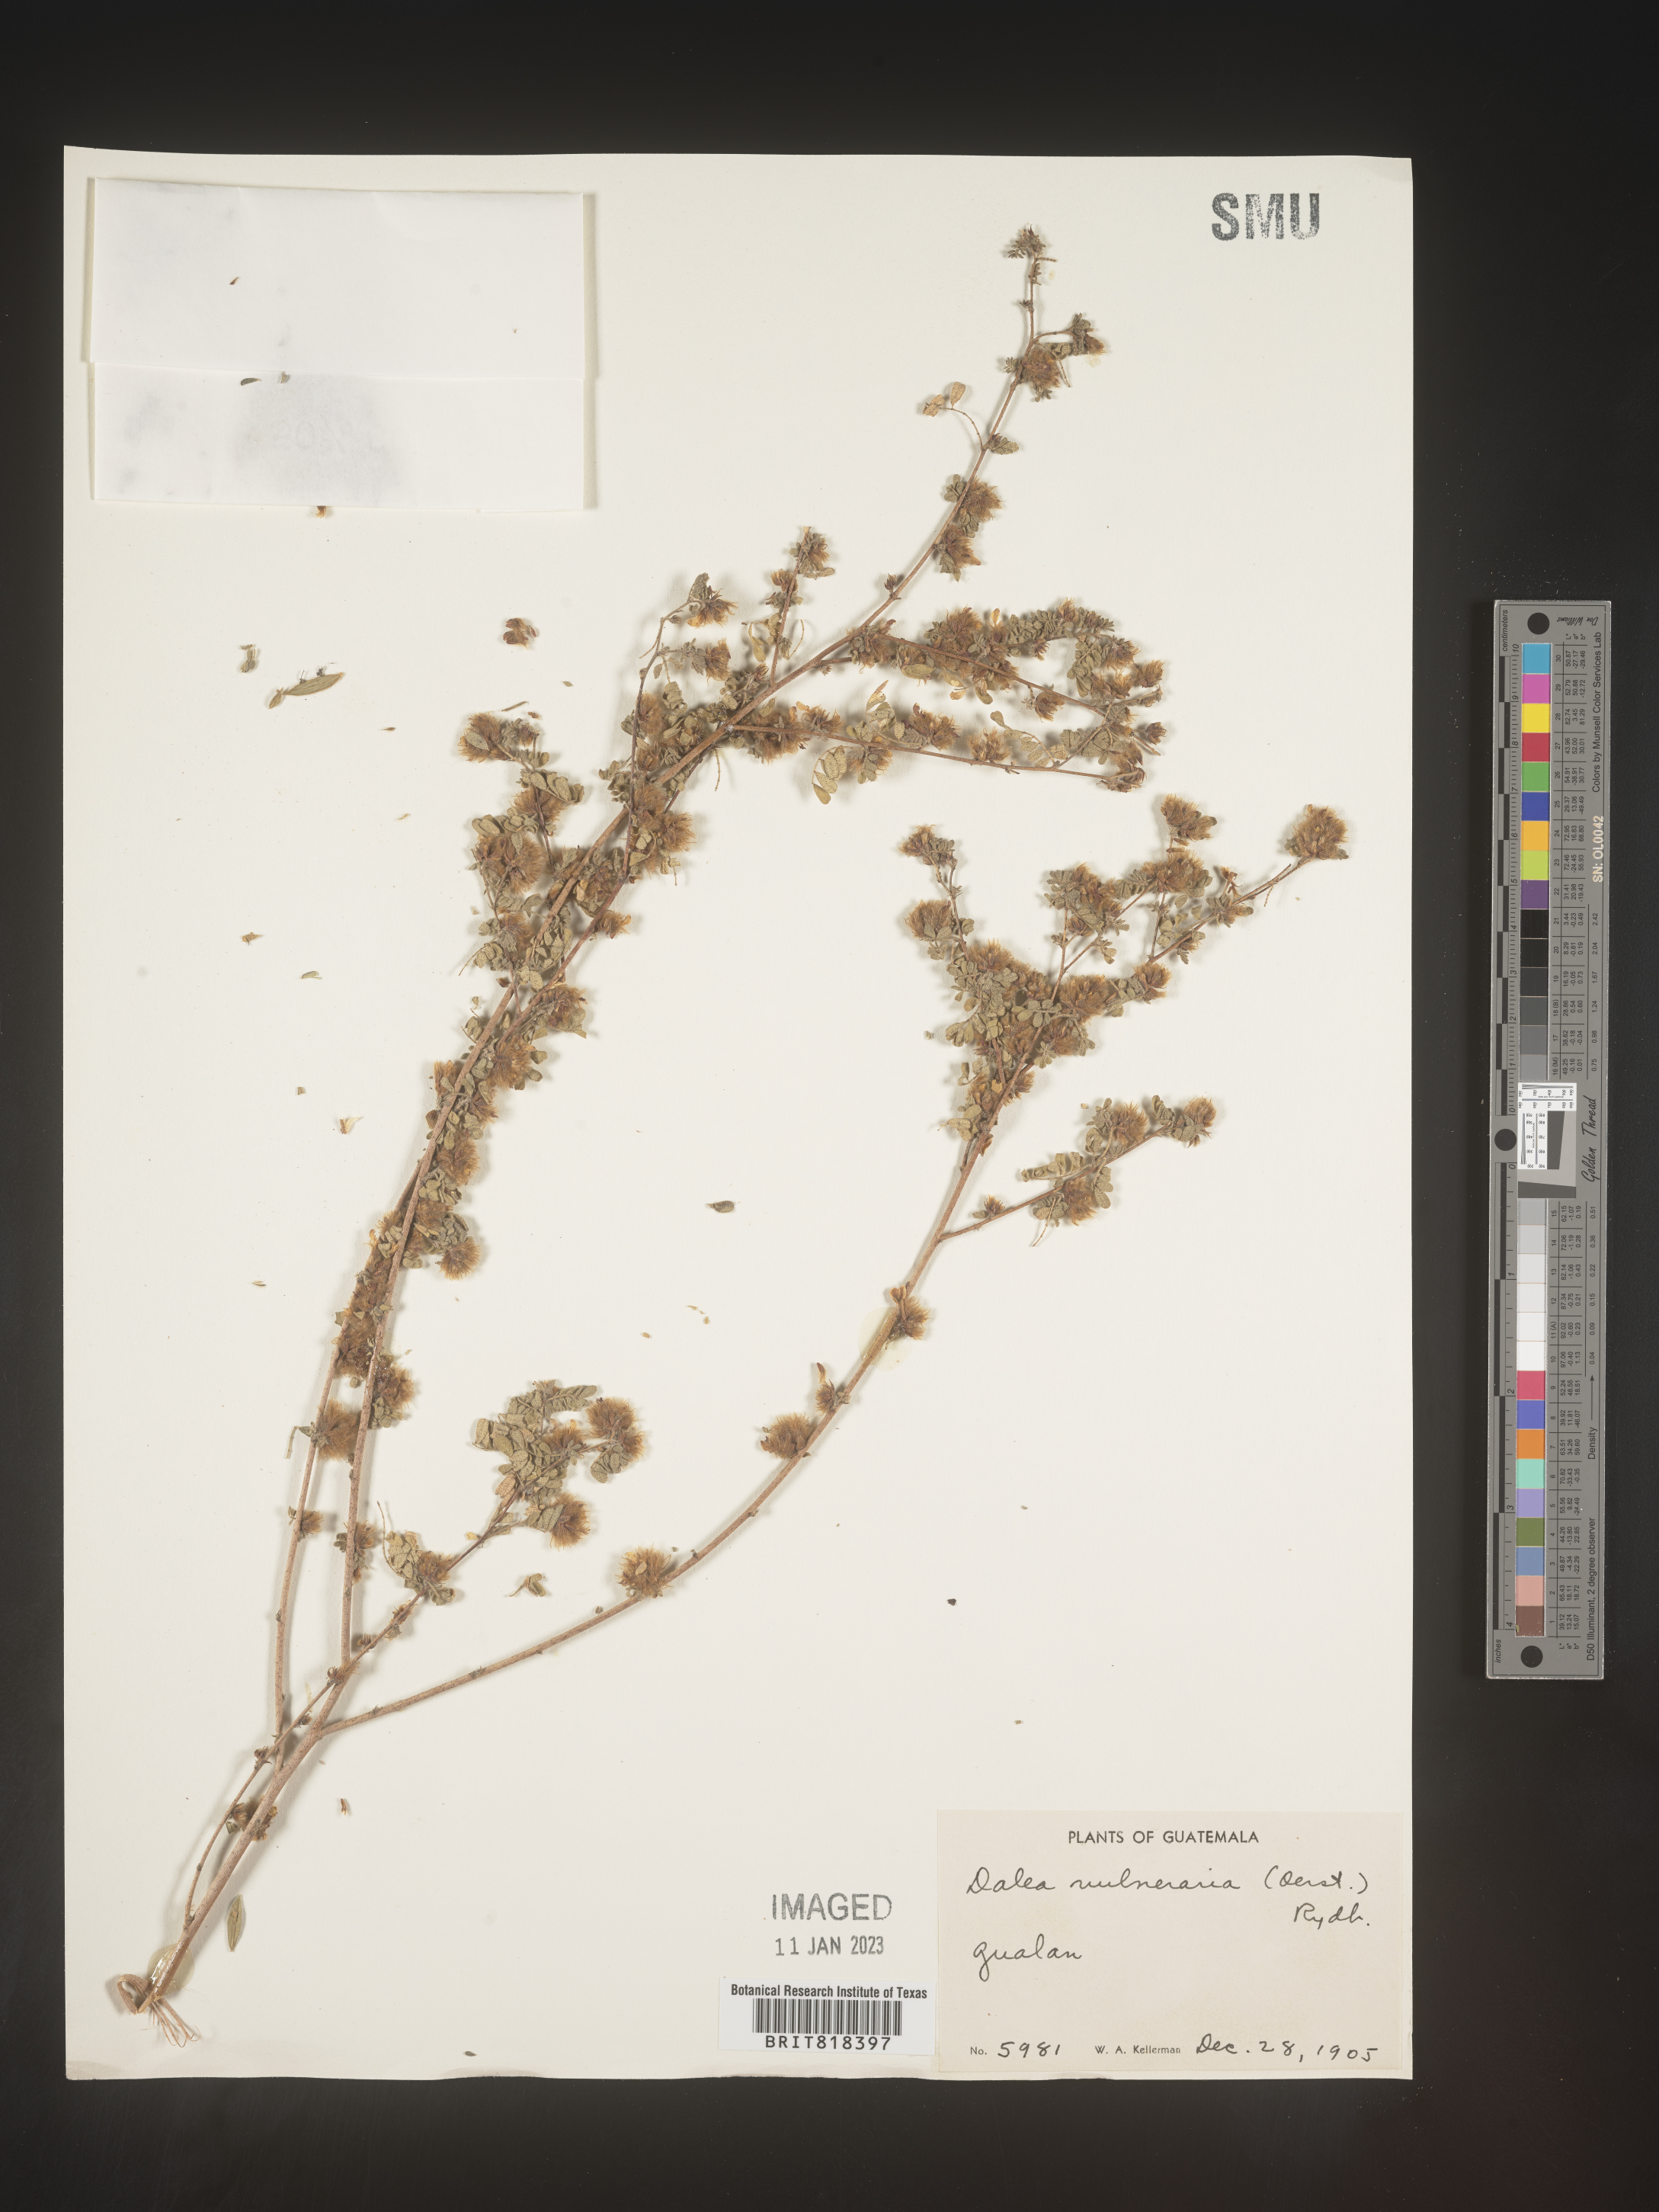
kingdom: Plantae
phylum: Tracheophyta
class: Magnoliopsida
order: Fabales
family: Fabaceae
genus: Dalea
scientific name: Dalea
